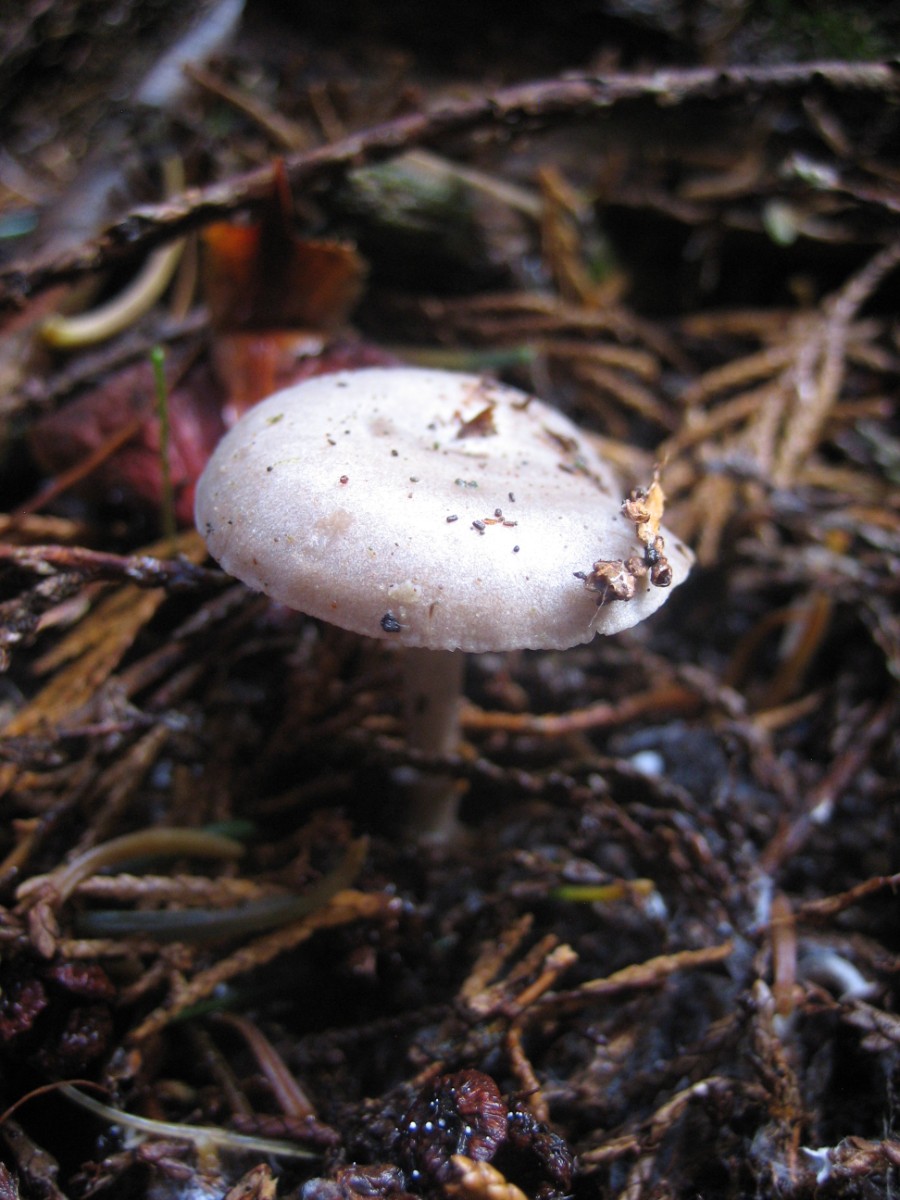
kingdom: Fungi
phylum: Basidiomycota
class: Agaricomycetes
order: Agaricales
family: Tricholomataceae
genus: Clitocybe
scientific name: Clitocybe
